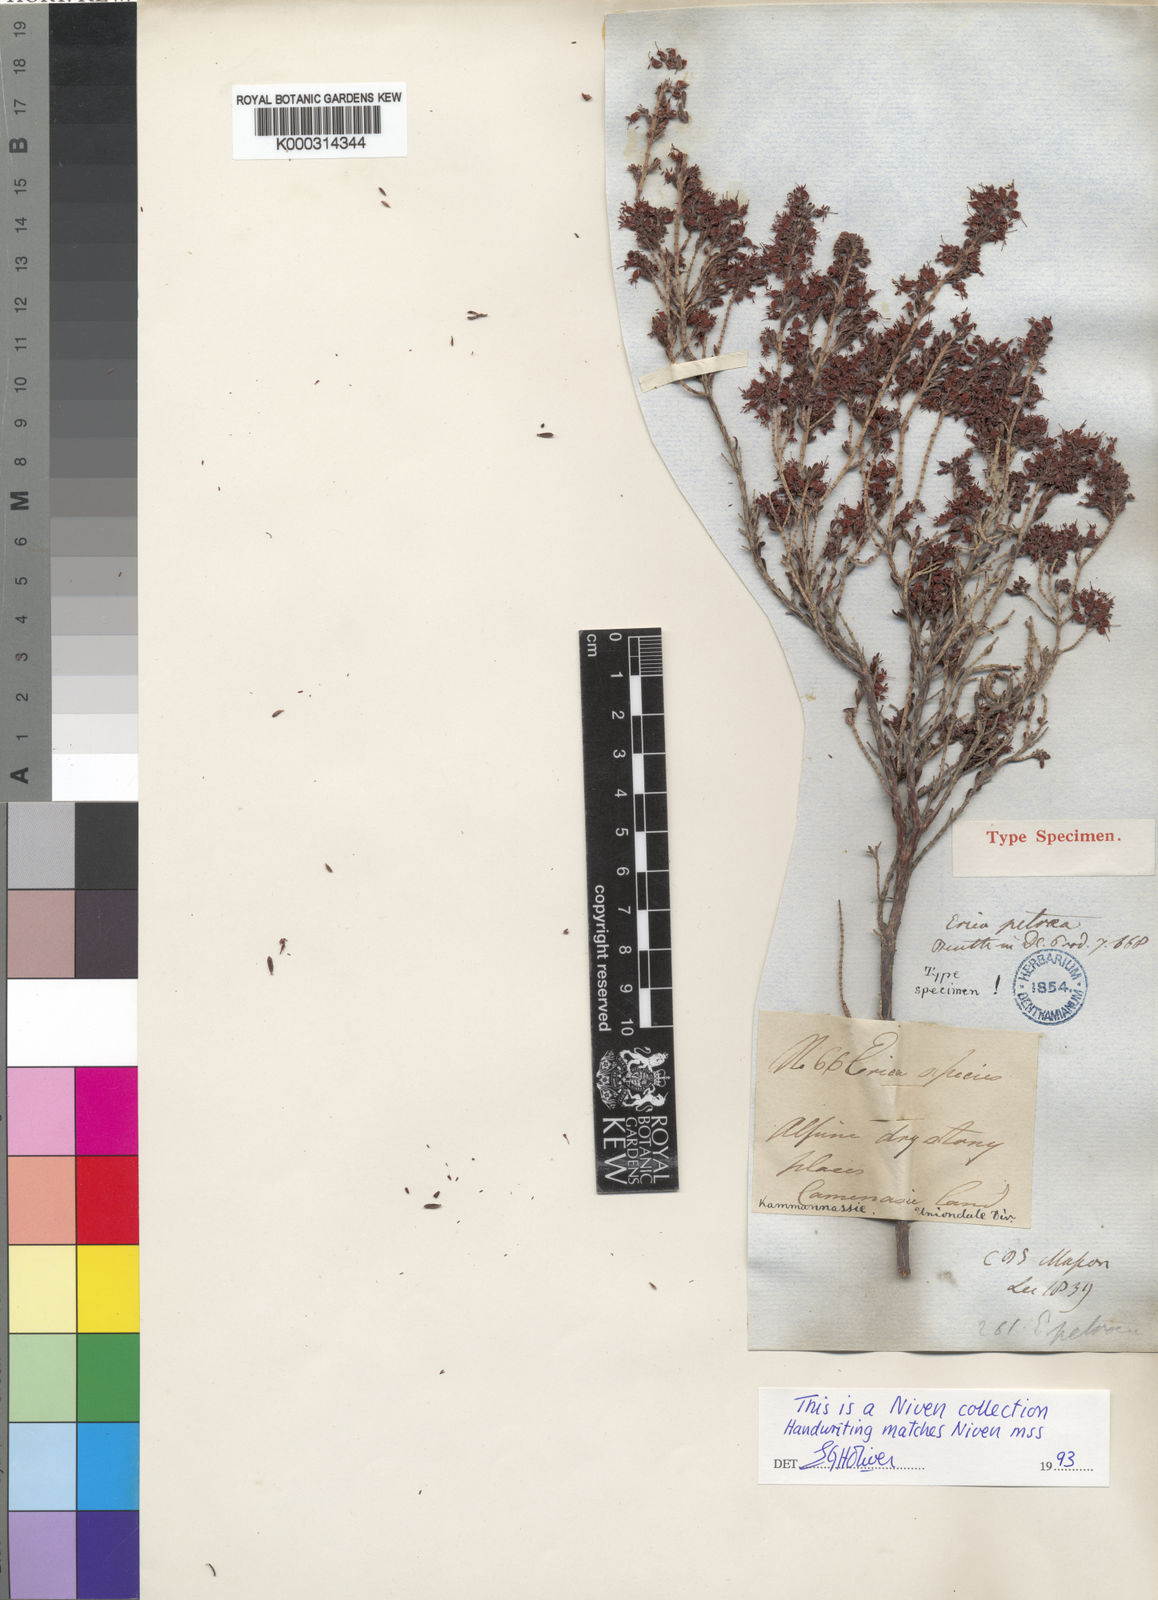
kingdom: Plantae
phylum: Tracheophyta
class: Magnoliopsida
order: Ericales
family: Ericaceae
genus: Erica
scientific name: Erica petraea
